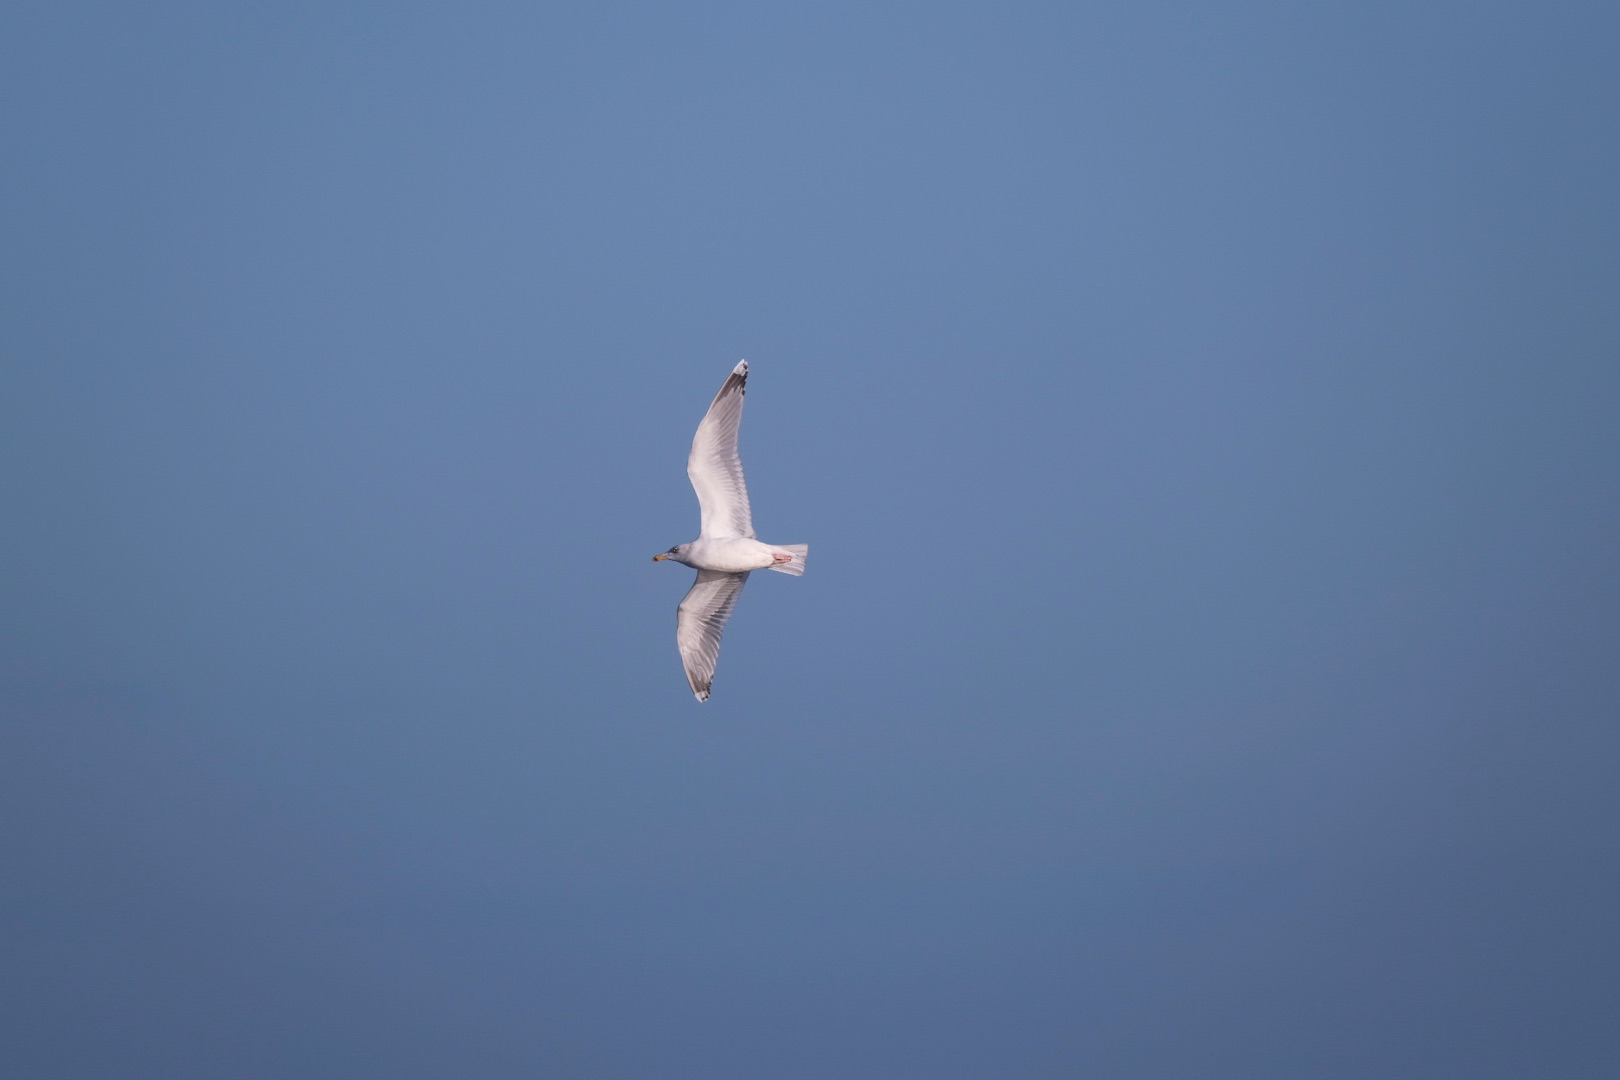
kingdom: Animalia
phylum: Chordata
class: Aves
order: Charadriiformes
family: Laridae
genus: Larus
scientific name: Larus argentatus
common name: Sølvmåge
